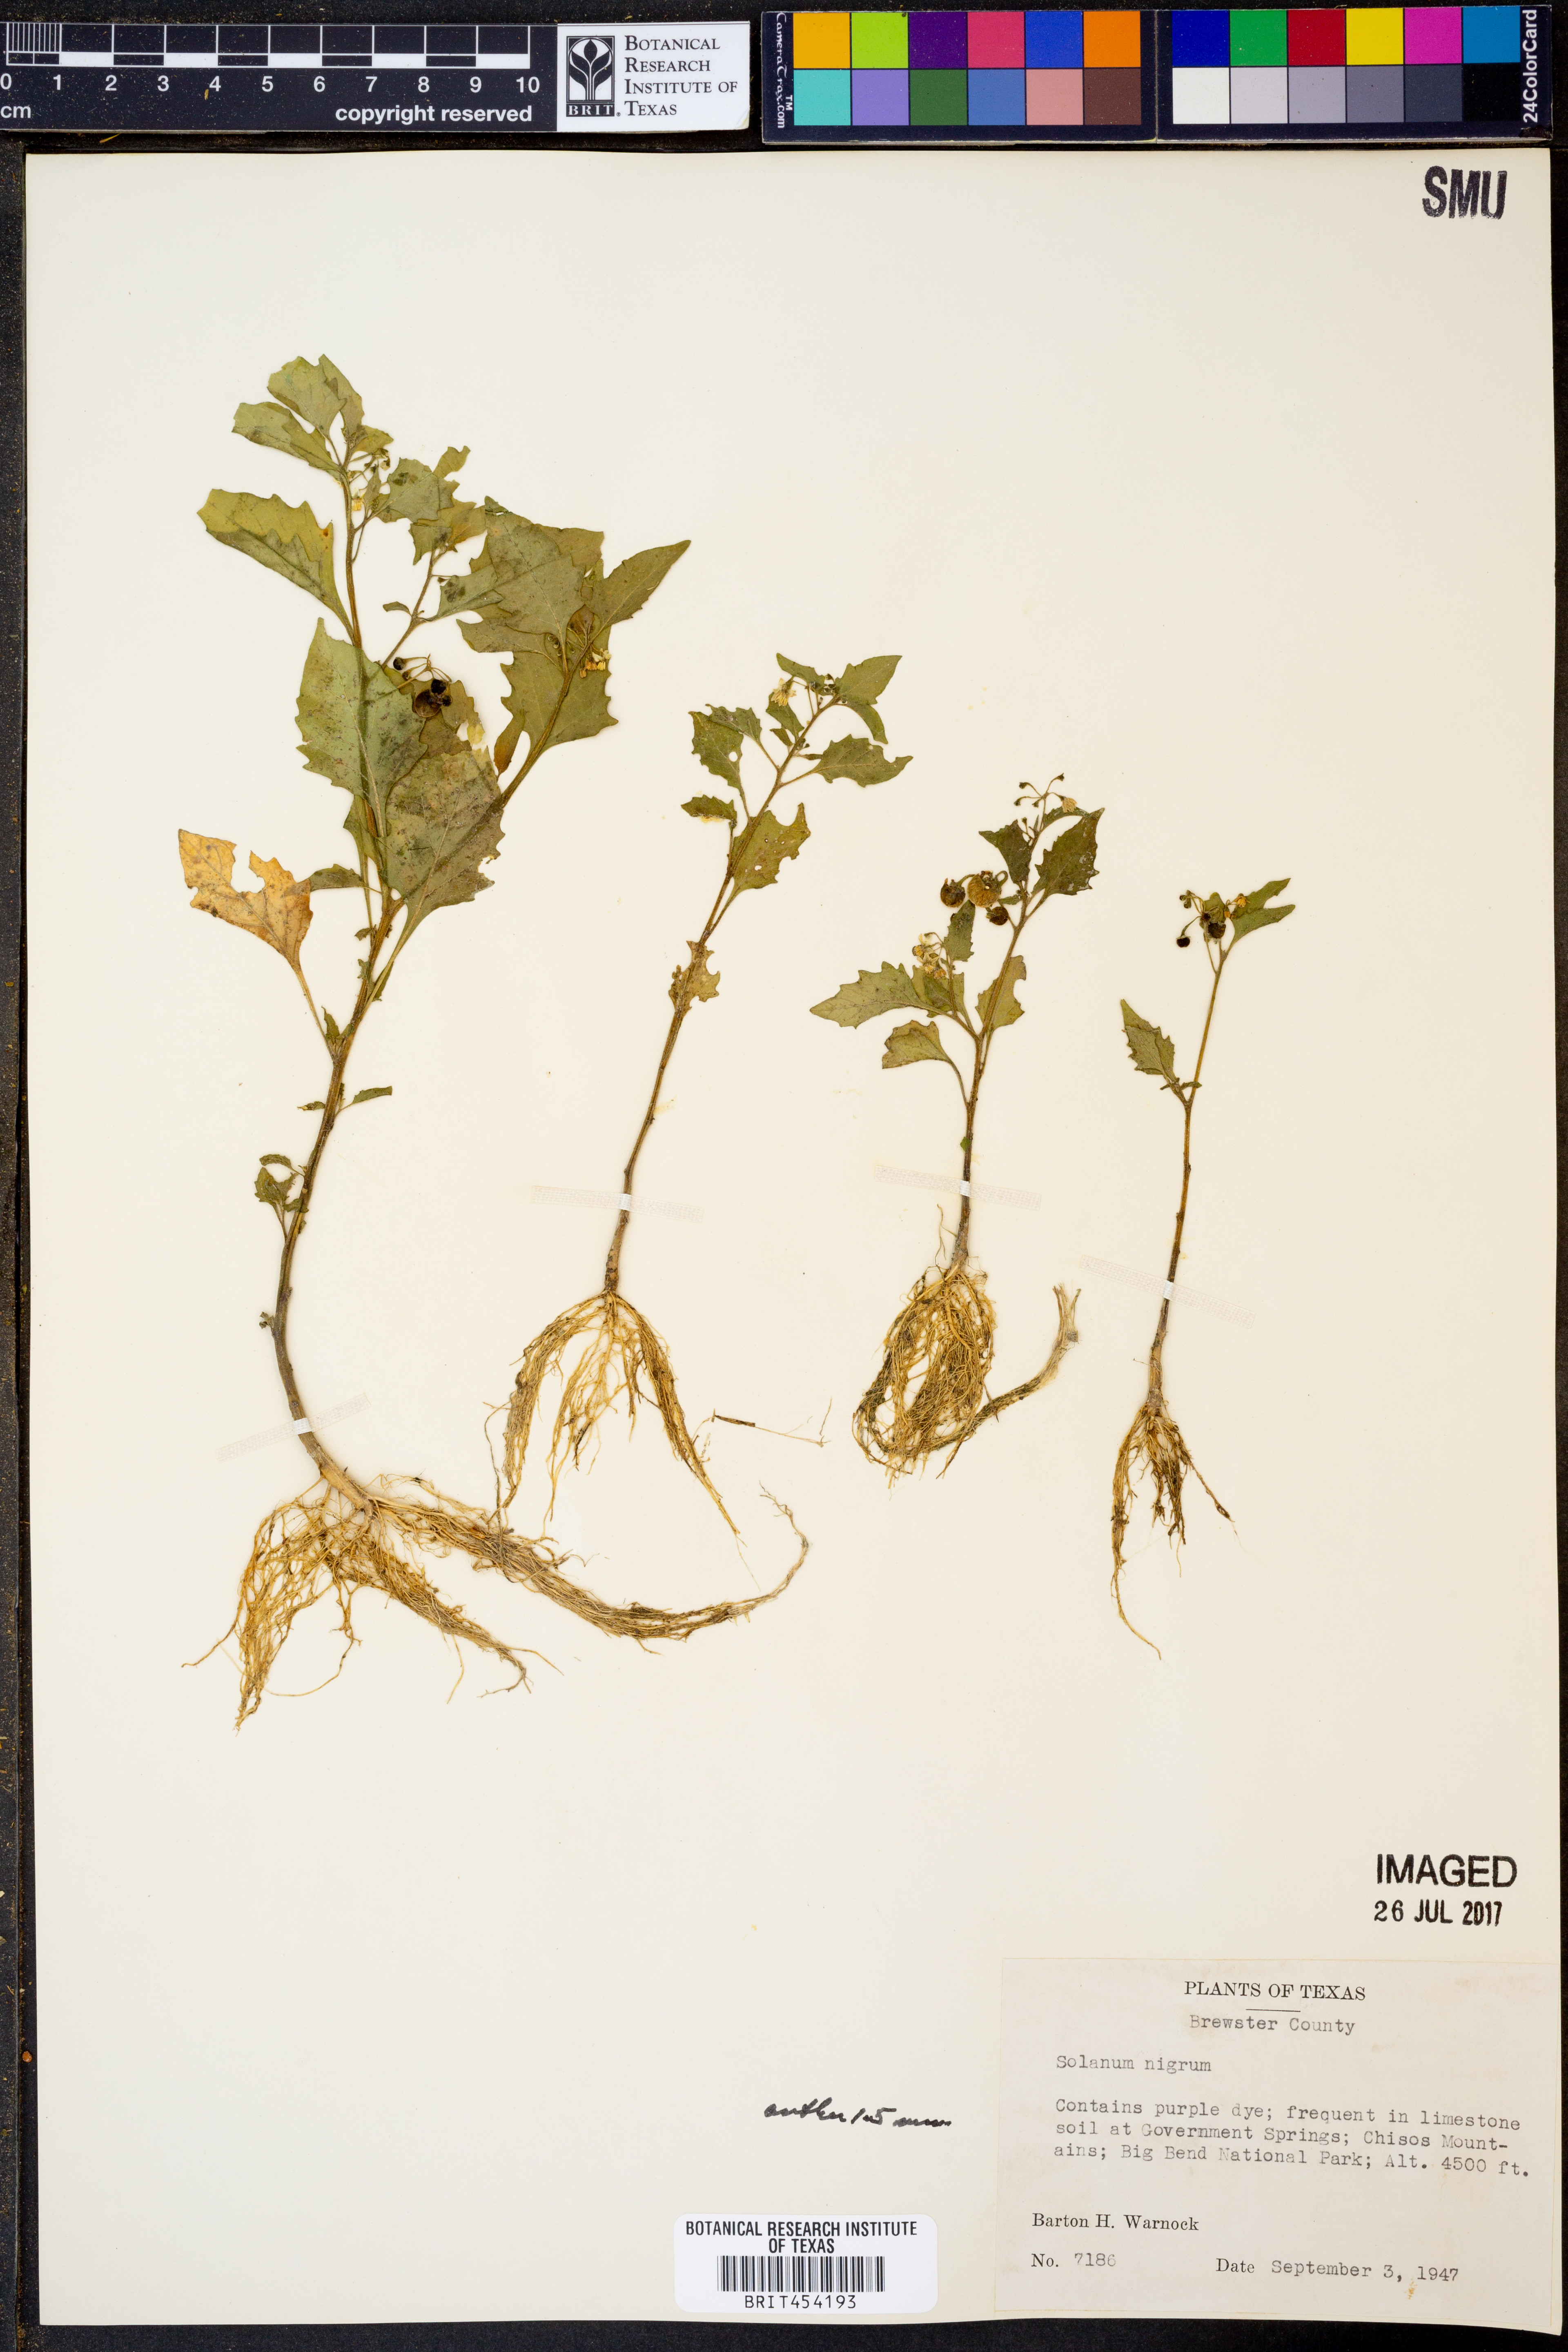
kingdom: Plantae
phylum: Tracheophyta
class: Magnoliopsida
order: Solanales
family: Solanaceae
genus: Solanum
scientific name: Solanum nigrum
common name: Black nightshade
